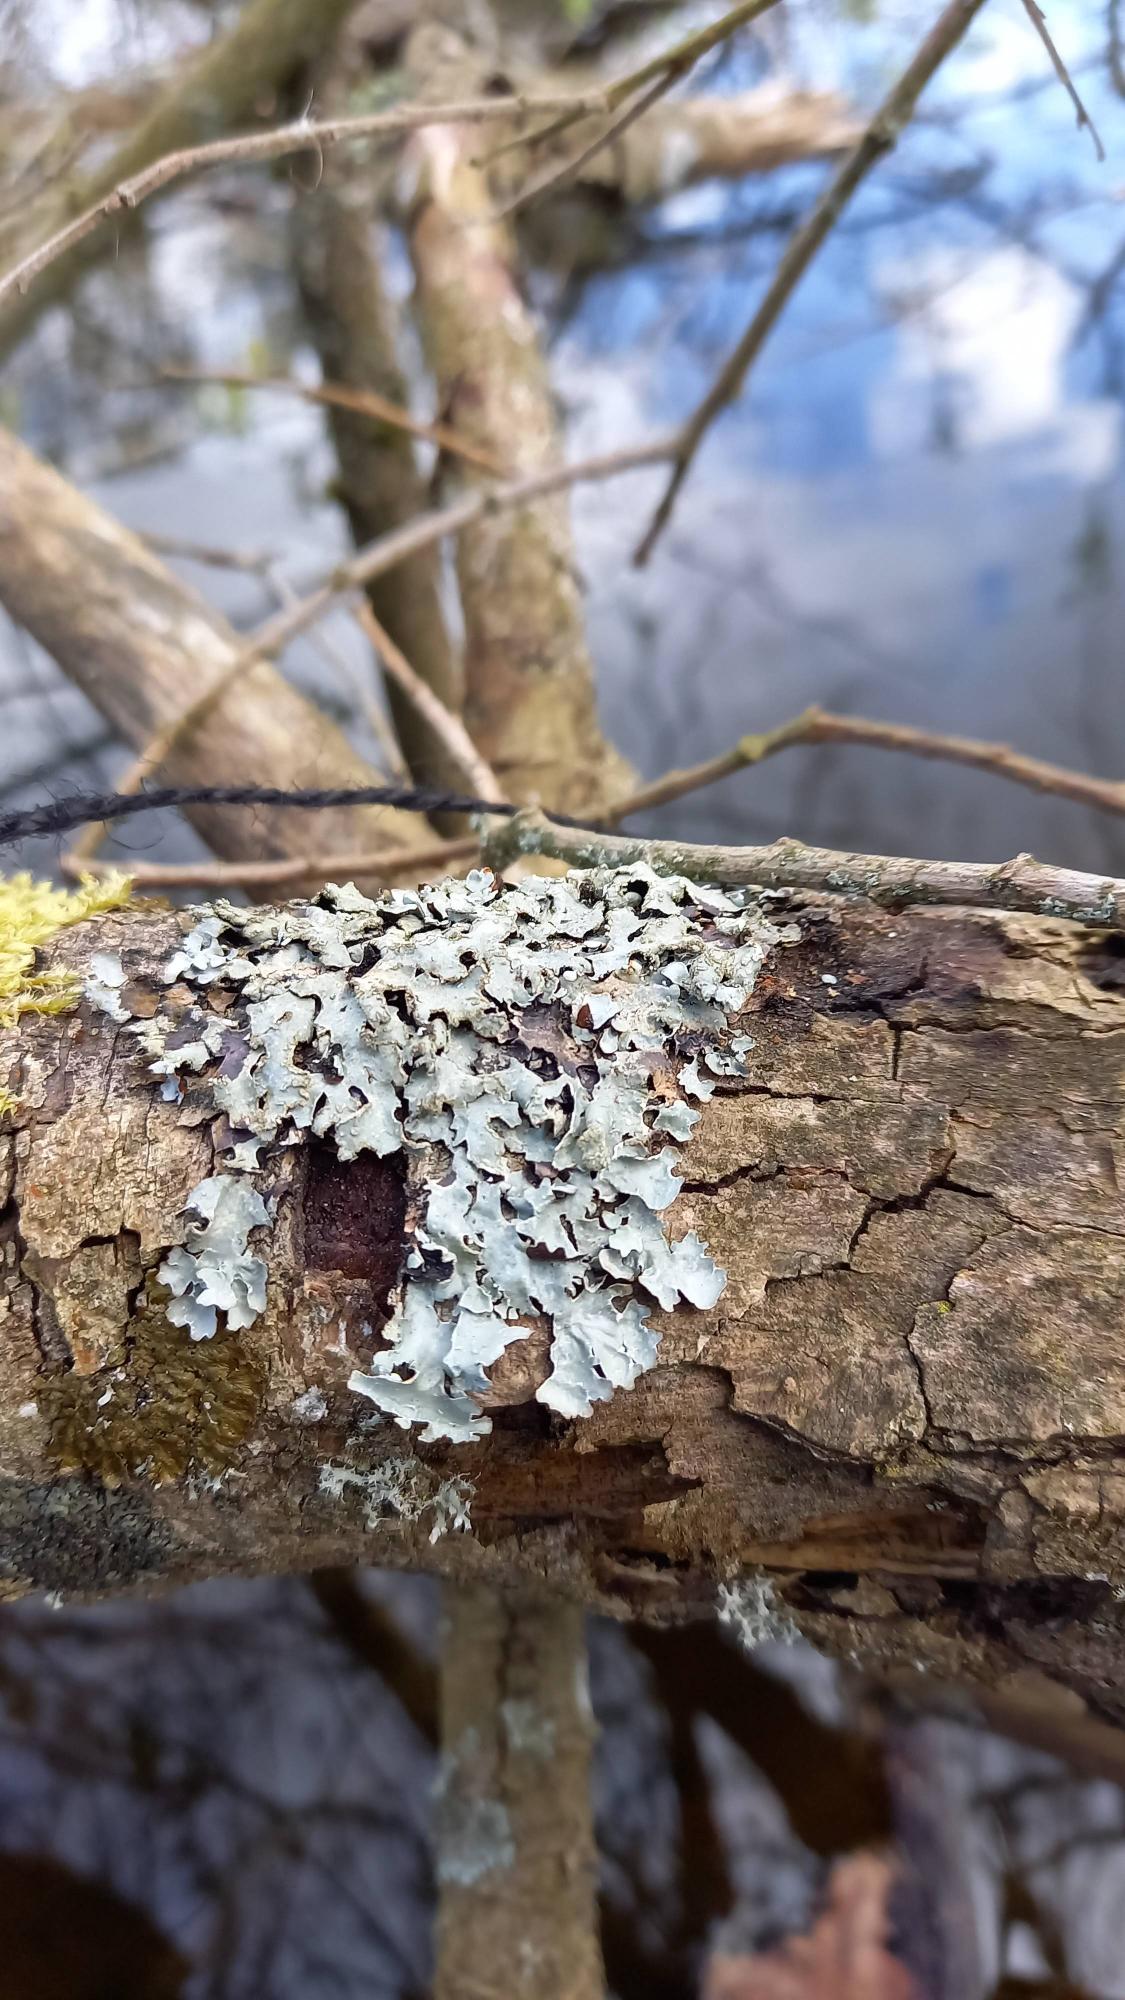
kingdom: Fungi
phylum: Ascomycota
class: Lecanoromycetes
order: Lecanorales
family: Parmeliaceae
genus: Parmelia
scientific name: Parmelia sulcata
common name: Rynket skållav
